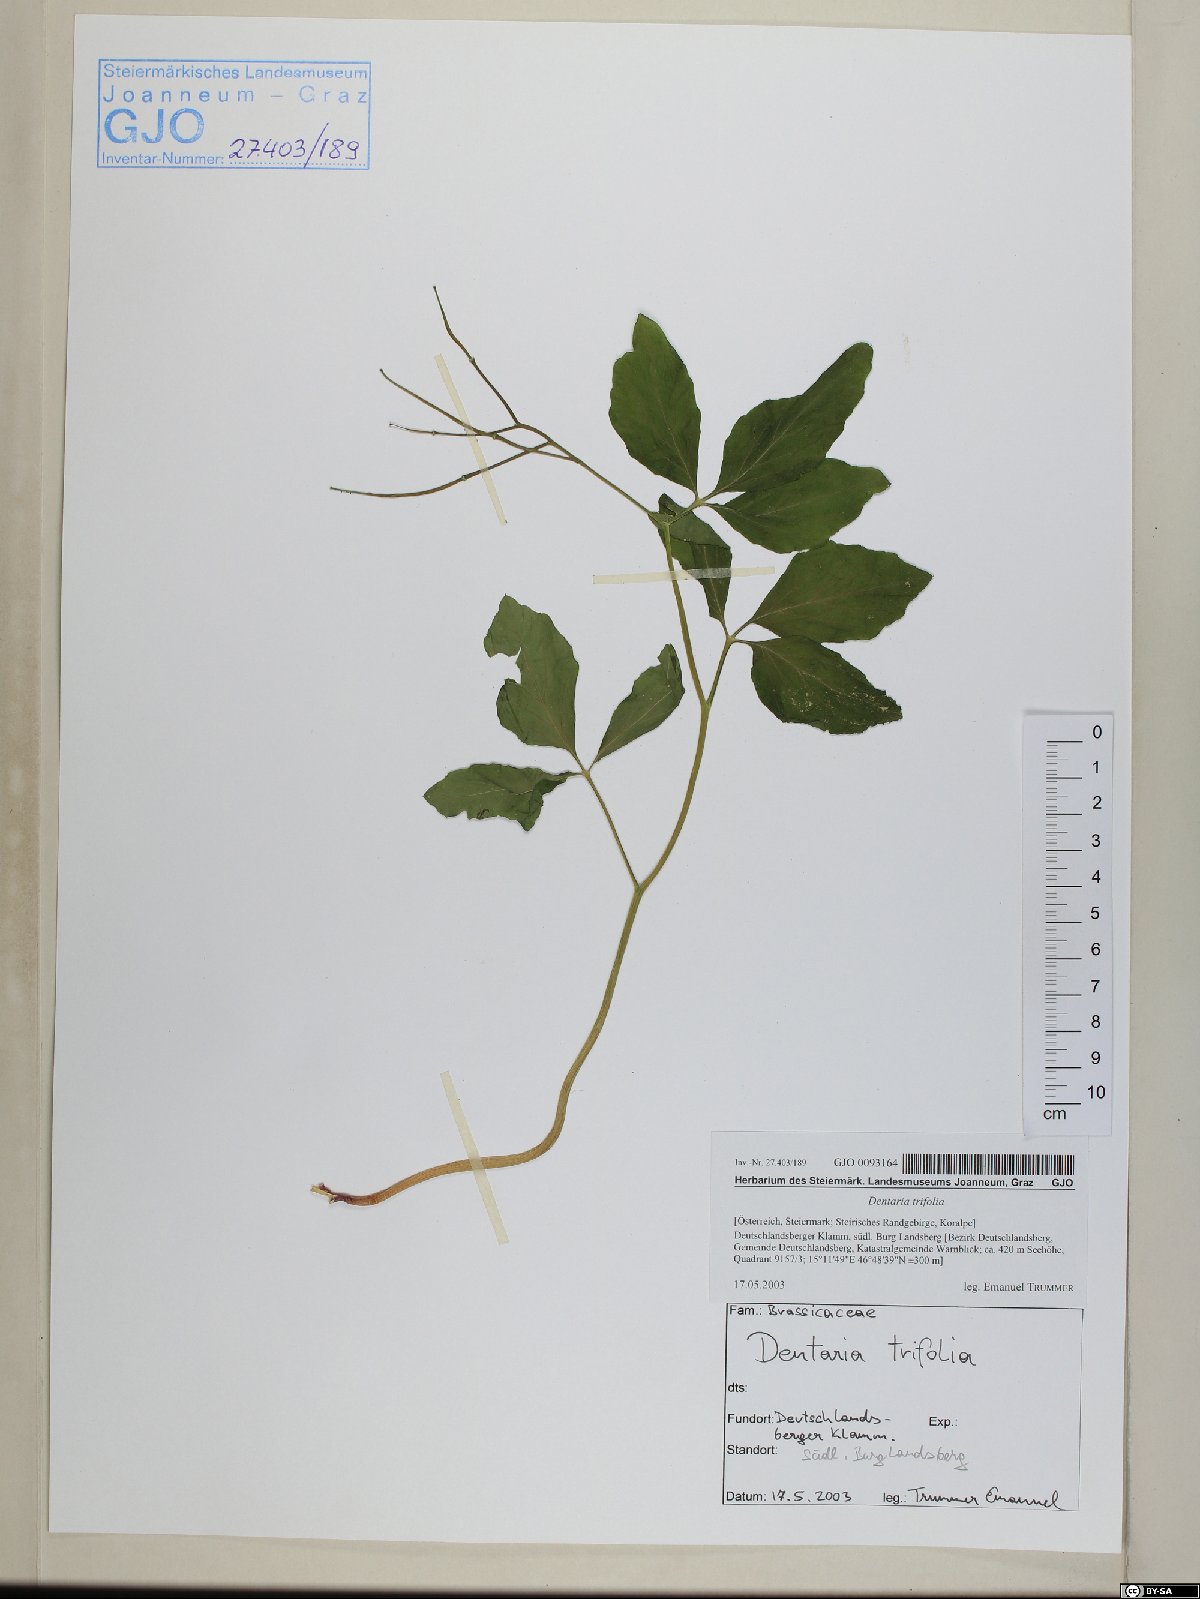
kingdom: Plantae
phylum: Tracheophyta
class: Magnoliopsida
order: Brassicales
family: Brassicaceae
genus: Cardamine
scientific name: Cardamine waldsteinii
